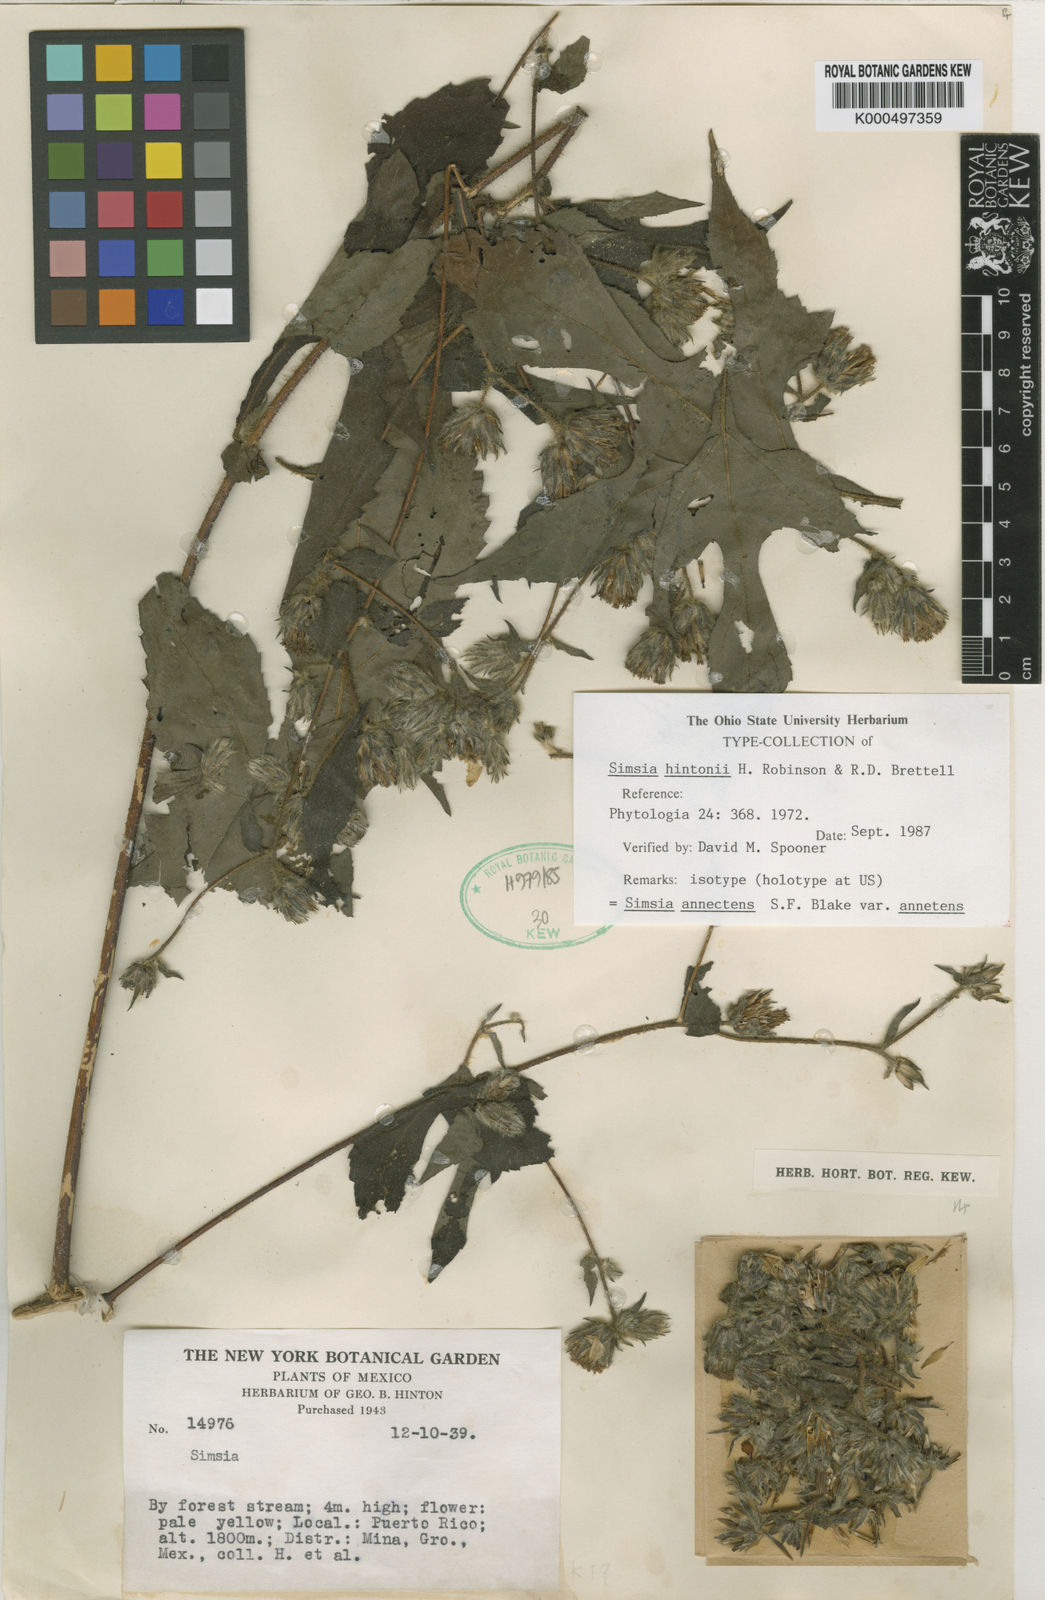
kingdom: Plantae
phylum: Tracheophyta
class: Magnoliopsida
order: Asterales
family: Asteraceae
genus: Simsia
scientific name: Simsia annectens
